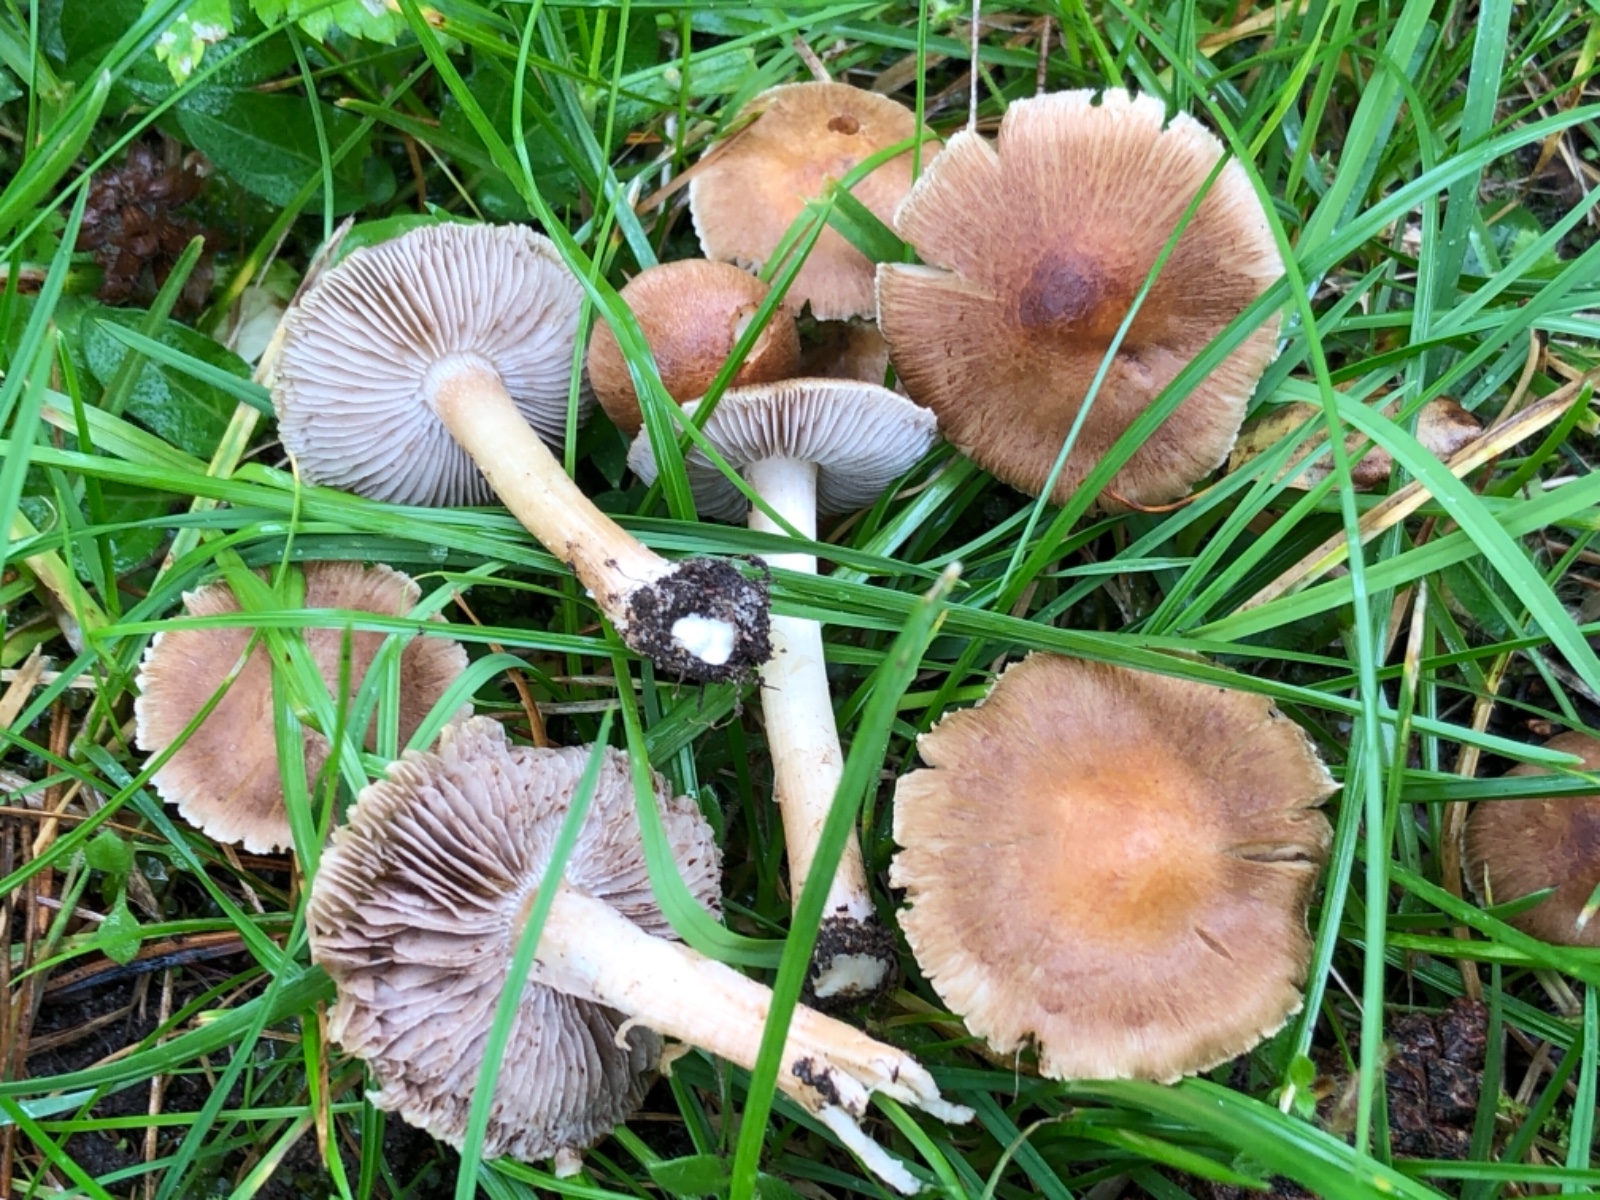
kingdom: Fungi
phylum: Basidiomycota
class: Agaricomycetes
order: Agaricales
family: Inocybaceae
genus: Inocybe
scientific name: Inocybe
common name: trævlhat
